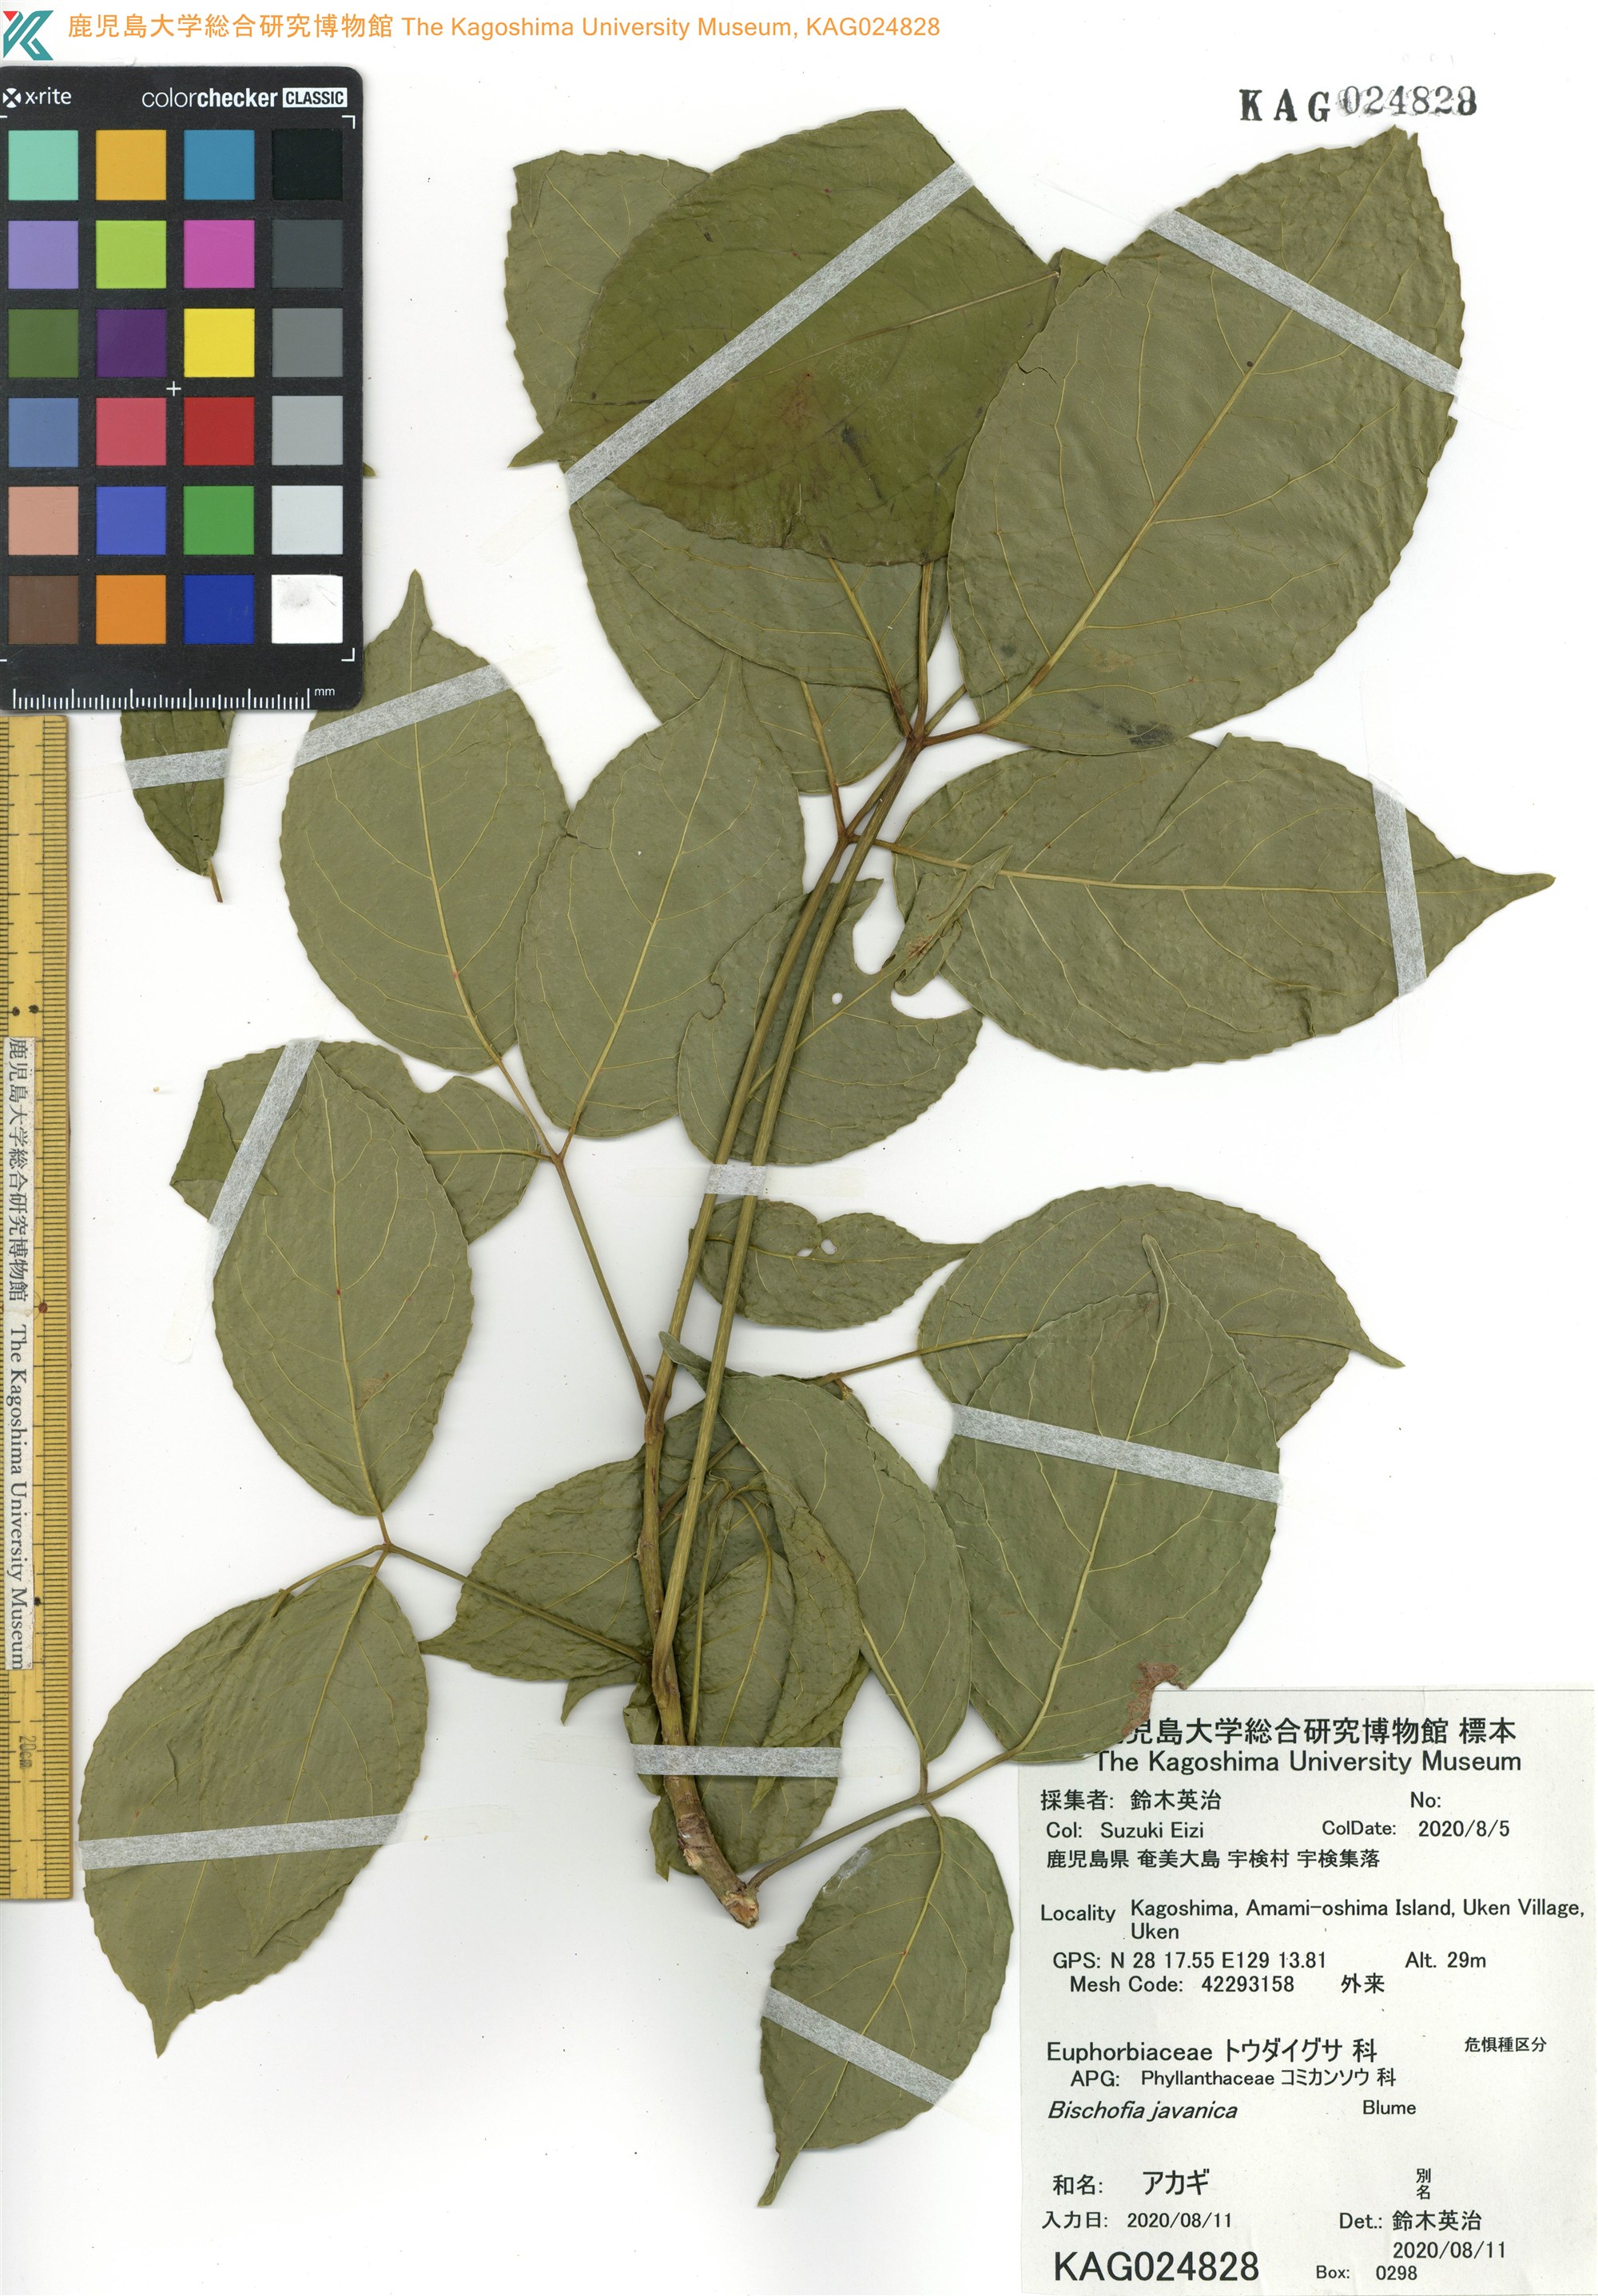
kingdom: Plantae
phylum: Tracheophyta
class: Magnoliopsida
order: Malpighiales
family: Phyllanthaceae
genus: Bischofia
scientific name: Bischofia javanica
